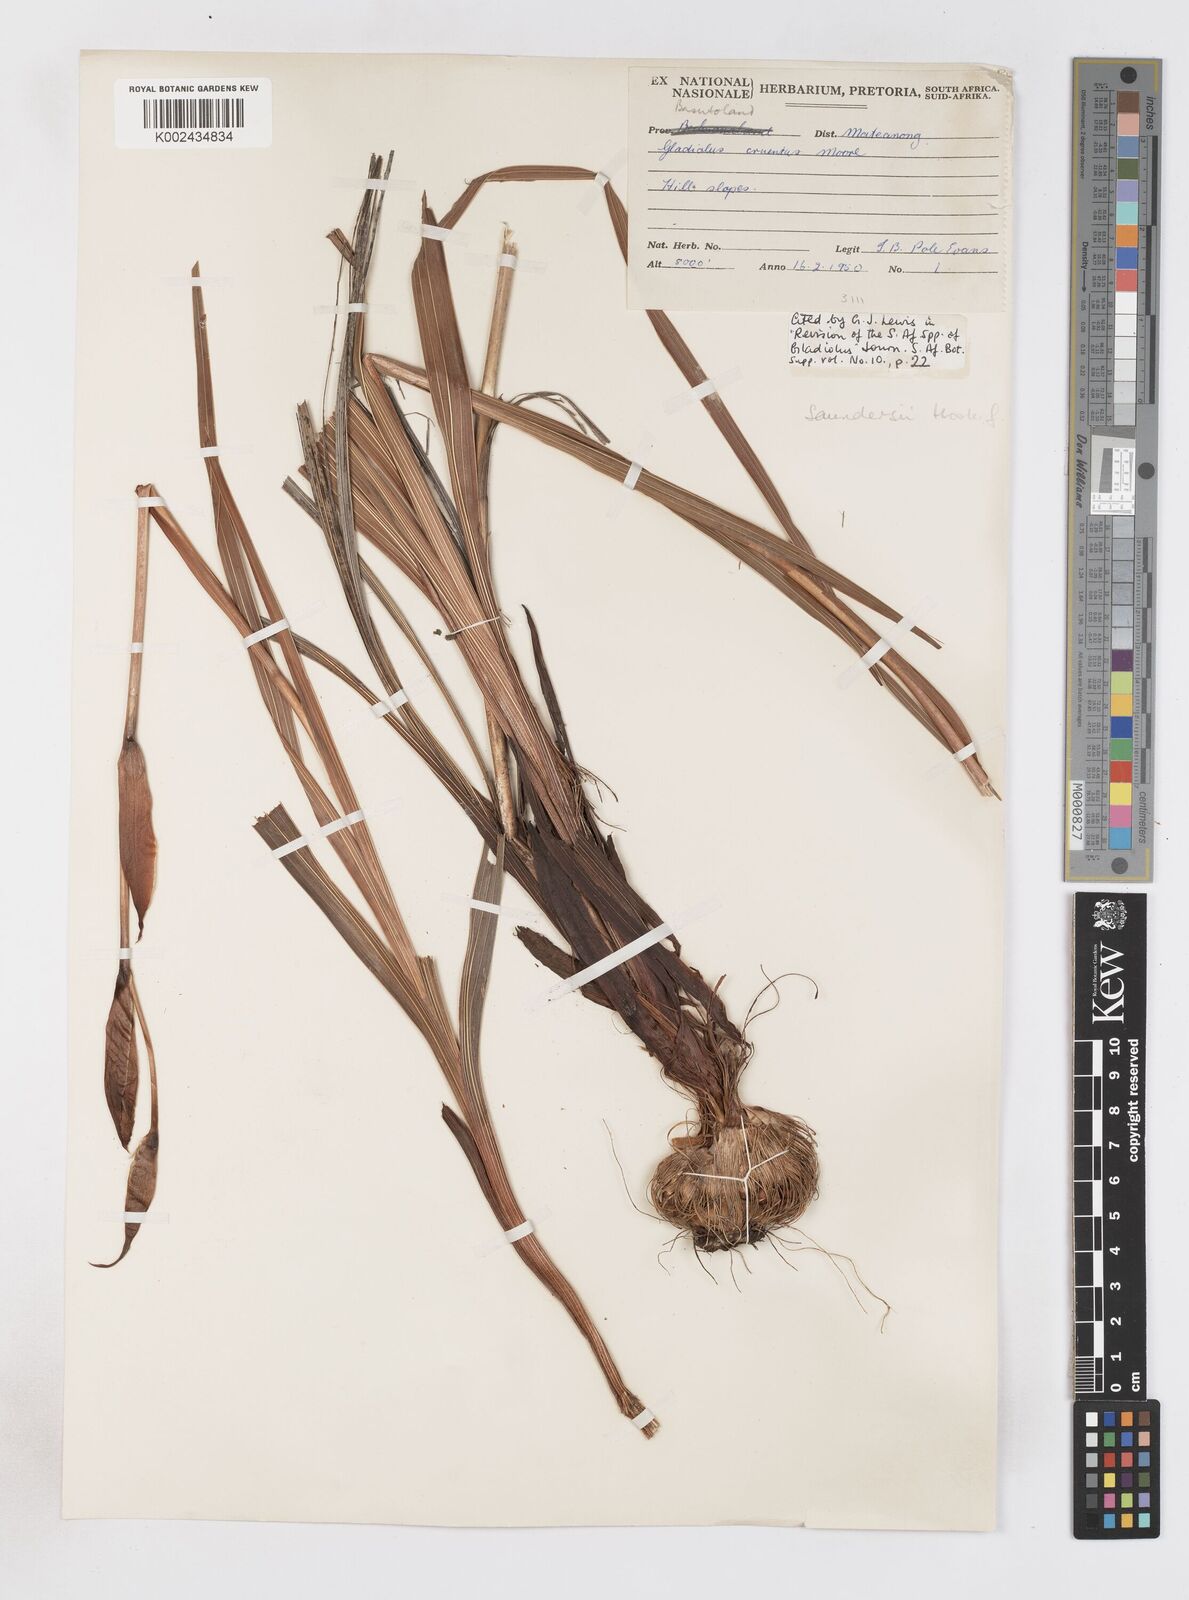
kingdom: Plantae
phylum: Tracheophyta
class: Liliopsida
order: Asparagales
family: Iridaceae
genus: Gladiolus
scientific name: Gladiolus saundersii
